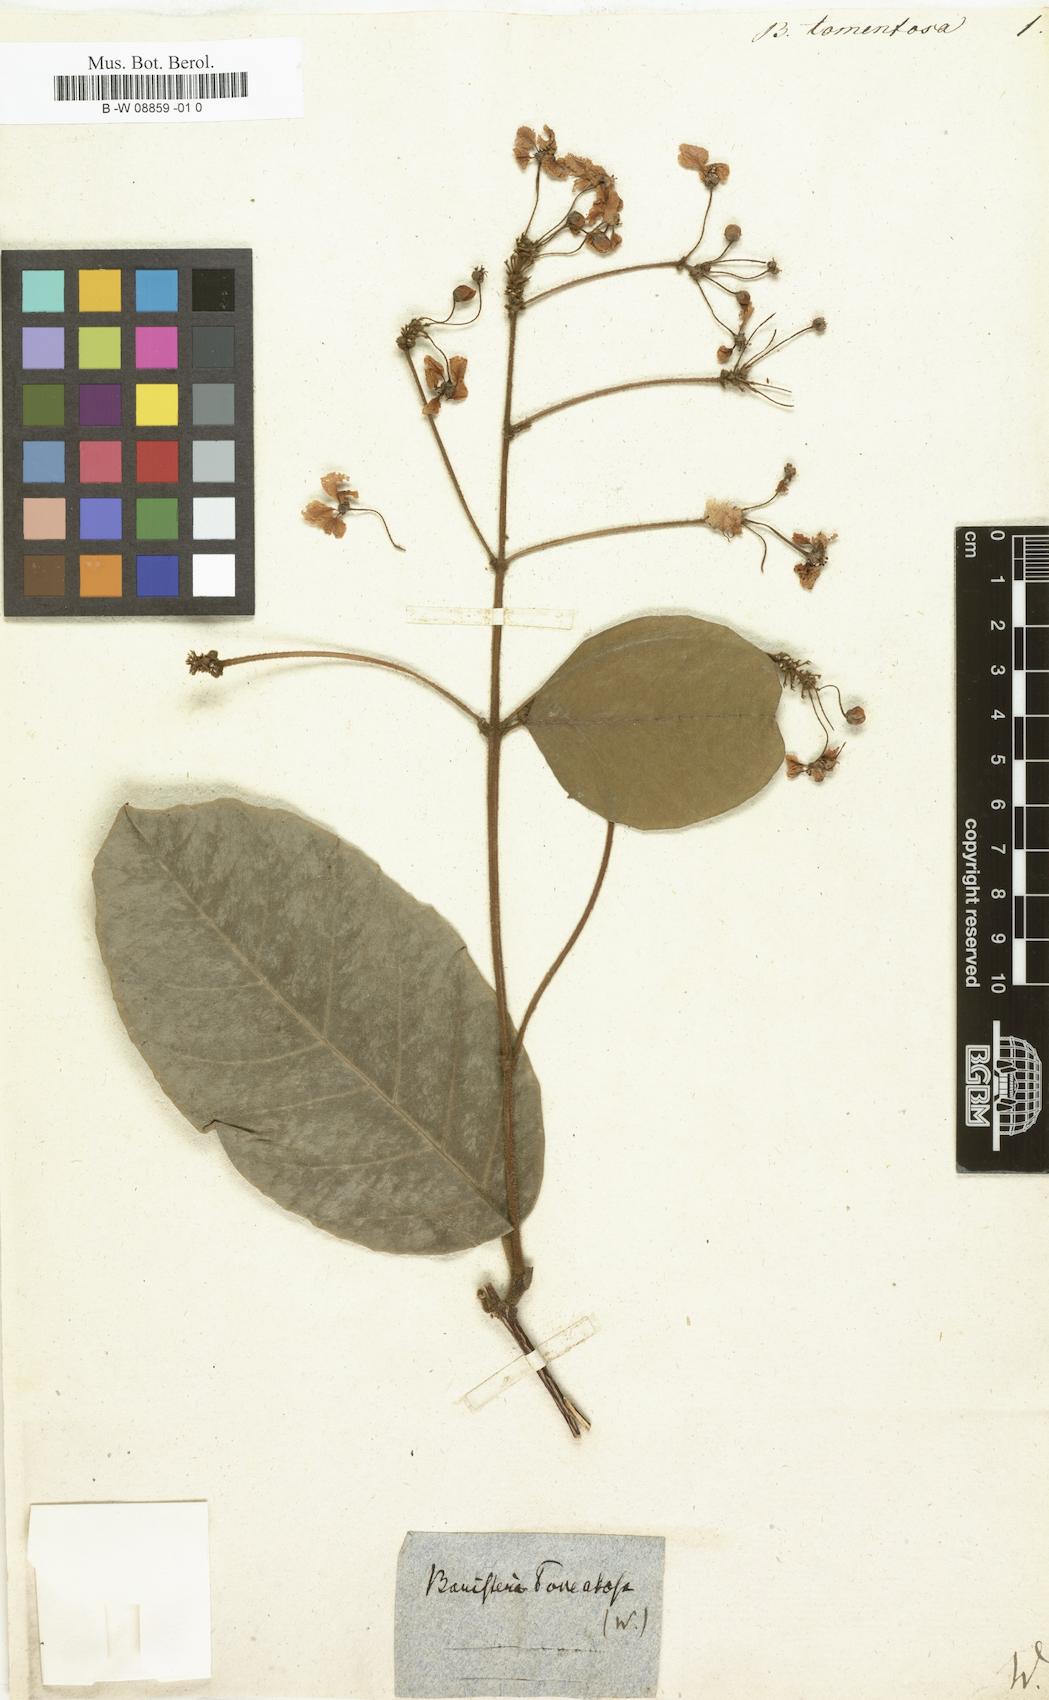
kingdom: Plantae
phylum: Tracheophyta
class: Magnoliopsida
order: Malpighiales
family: Malpighiaceae
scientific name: Malpighiaceae
